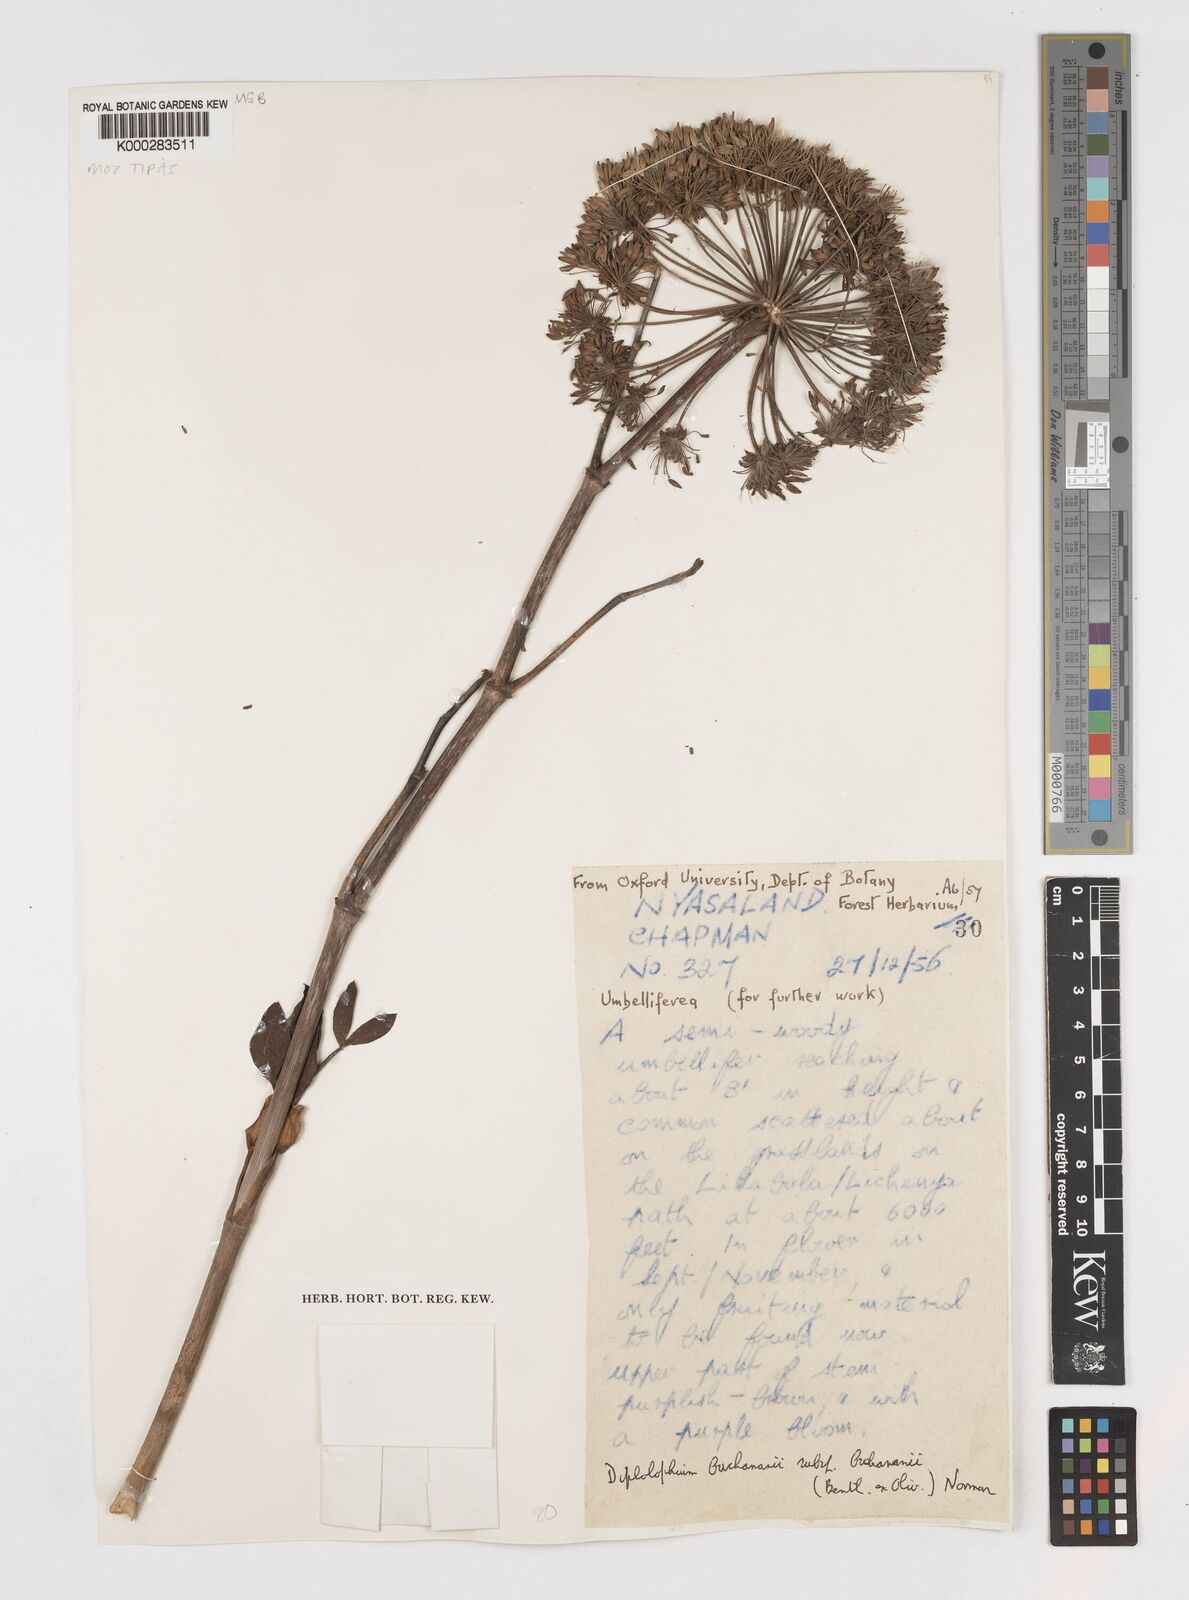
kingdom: Plantae
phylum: Tracheophyta
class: Magnoliopsida
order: Apiales
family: Apiaceae
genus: Diplolophium
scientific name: Diplolophium buchananii
